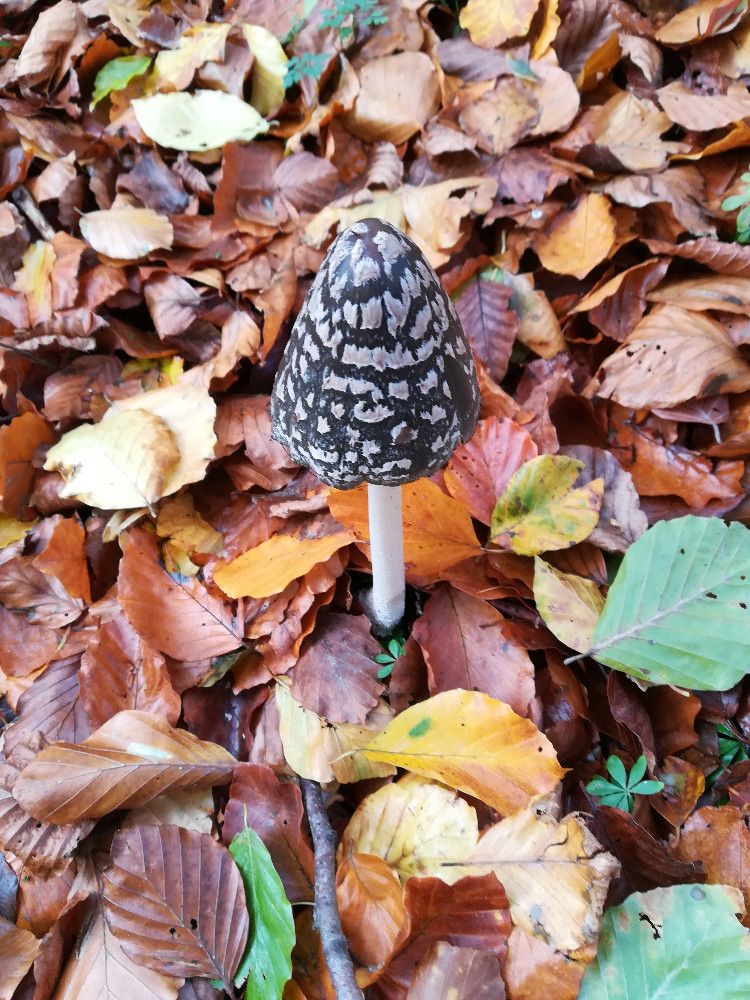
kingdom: Fungi
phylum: Basidiomycota
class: Agaricomycetes
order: Agaricales
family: Psathyrellaceae
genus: Coprinopsis
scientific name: Coprinopsis picacea
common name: skade-blækhat
